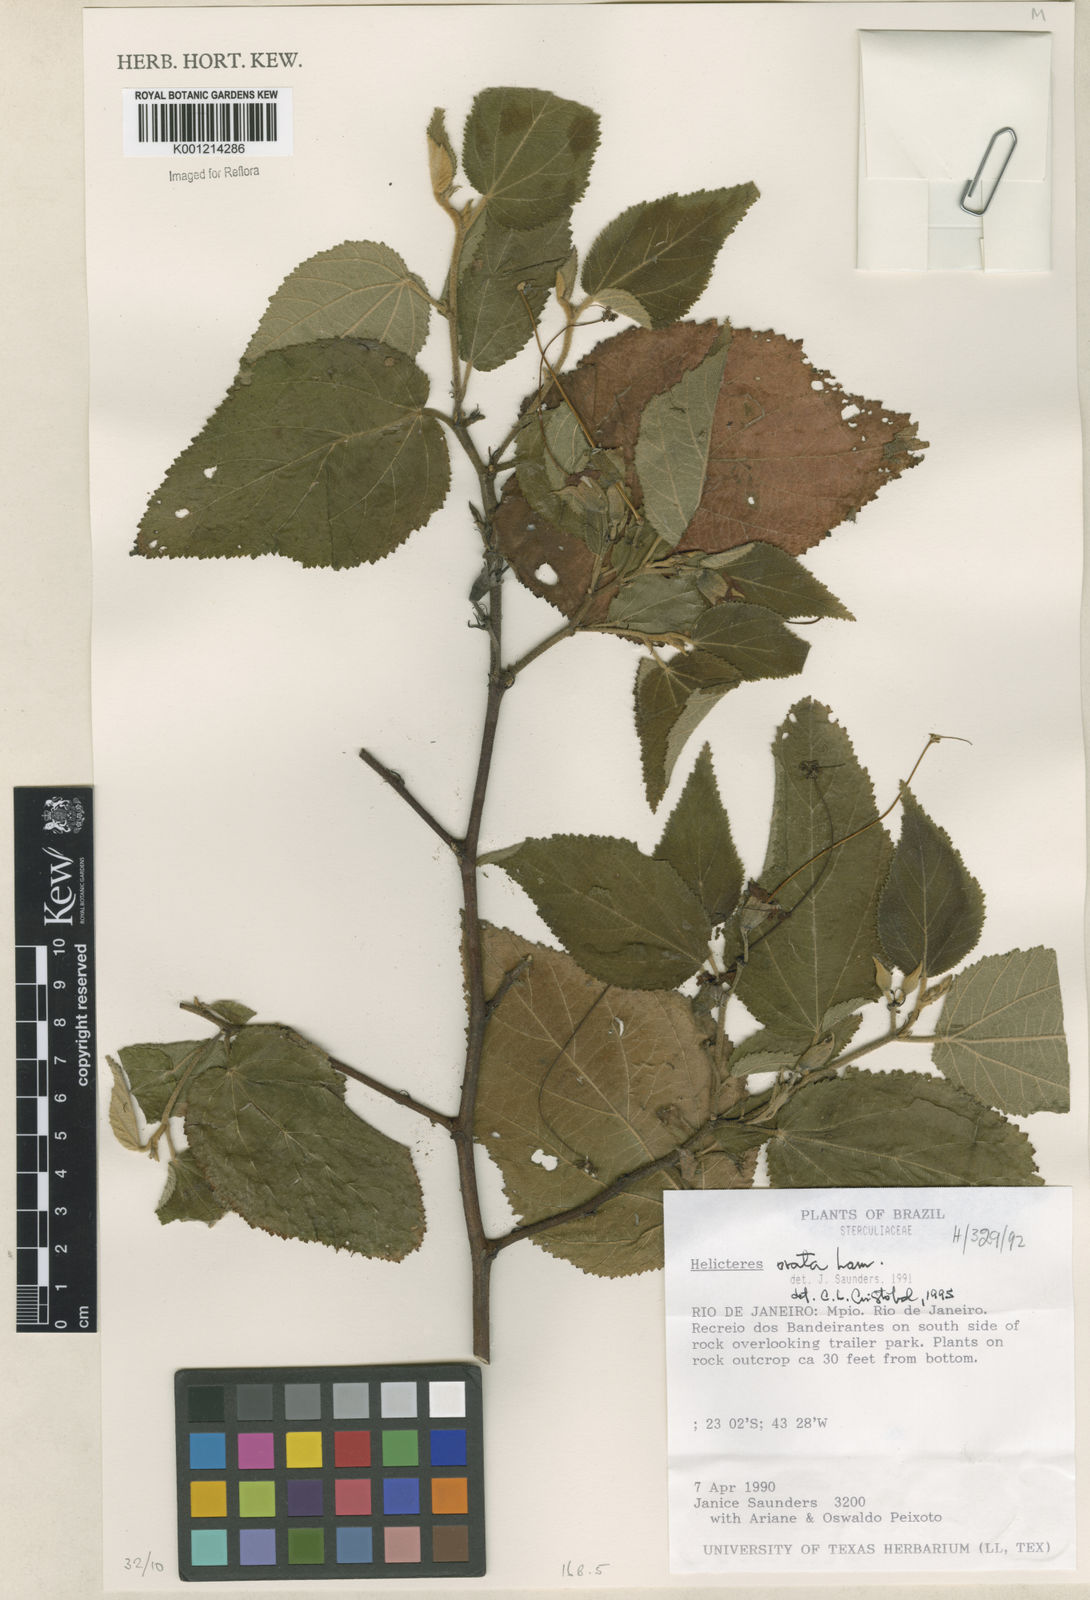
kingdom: Plantae
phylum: Tracheophyta
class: Magnoliopsida
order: Malvales
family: Malvaceae
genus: Helicteres
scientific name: Helicteres ovata
